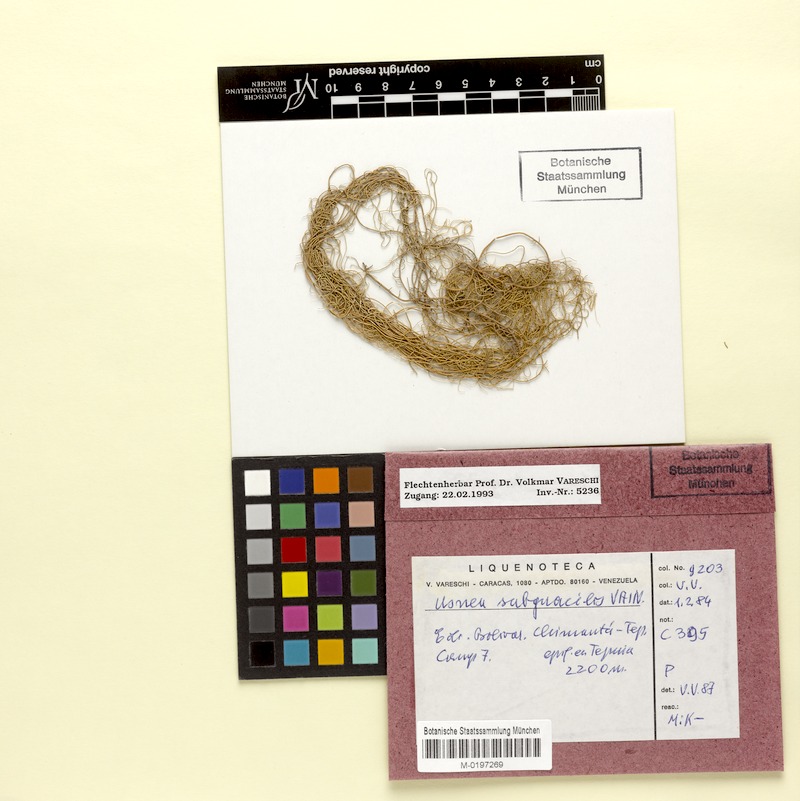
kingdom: Fungi
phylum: Ascomycota
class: Lecanoromycetes
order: Lecanorales
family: Parmeliaceae
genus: Usnea
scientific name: Usnea subgracilis
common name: Beard lichen
